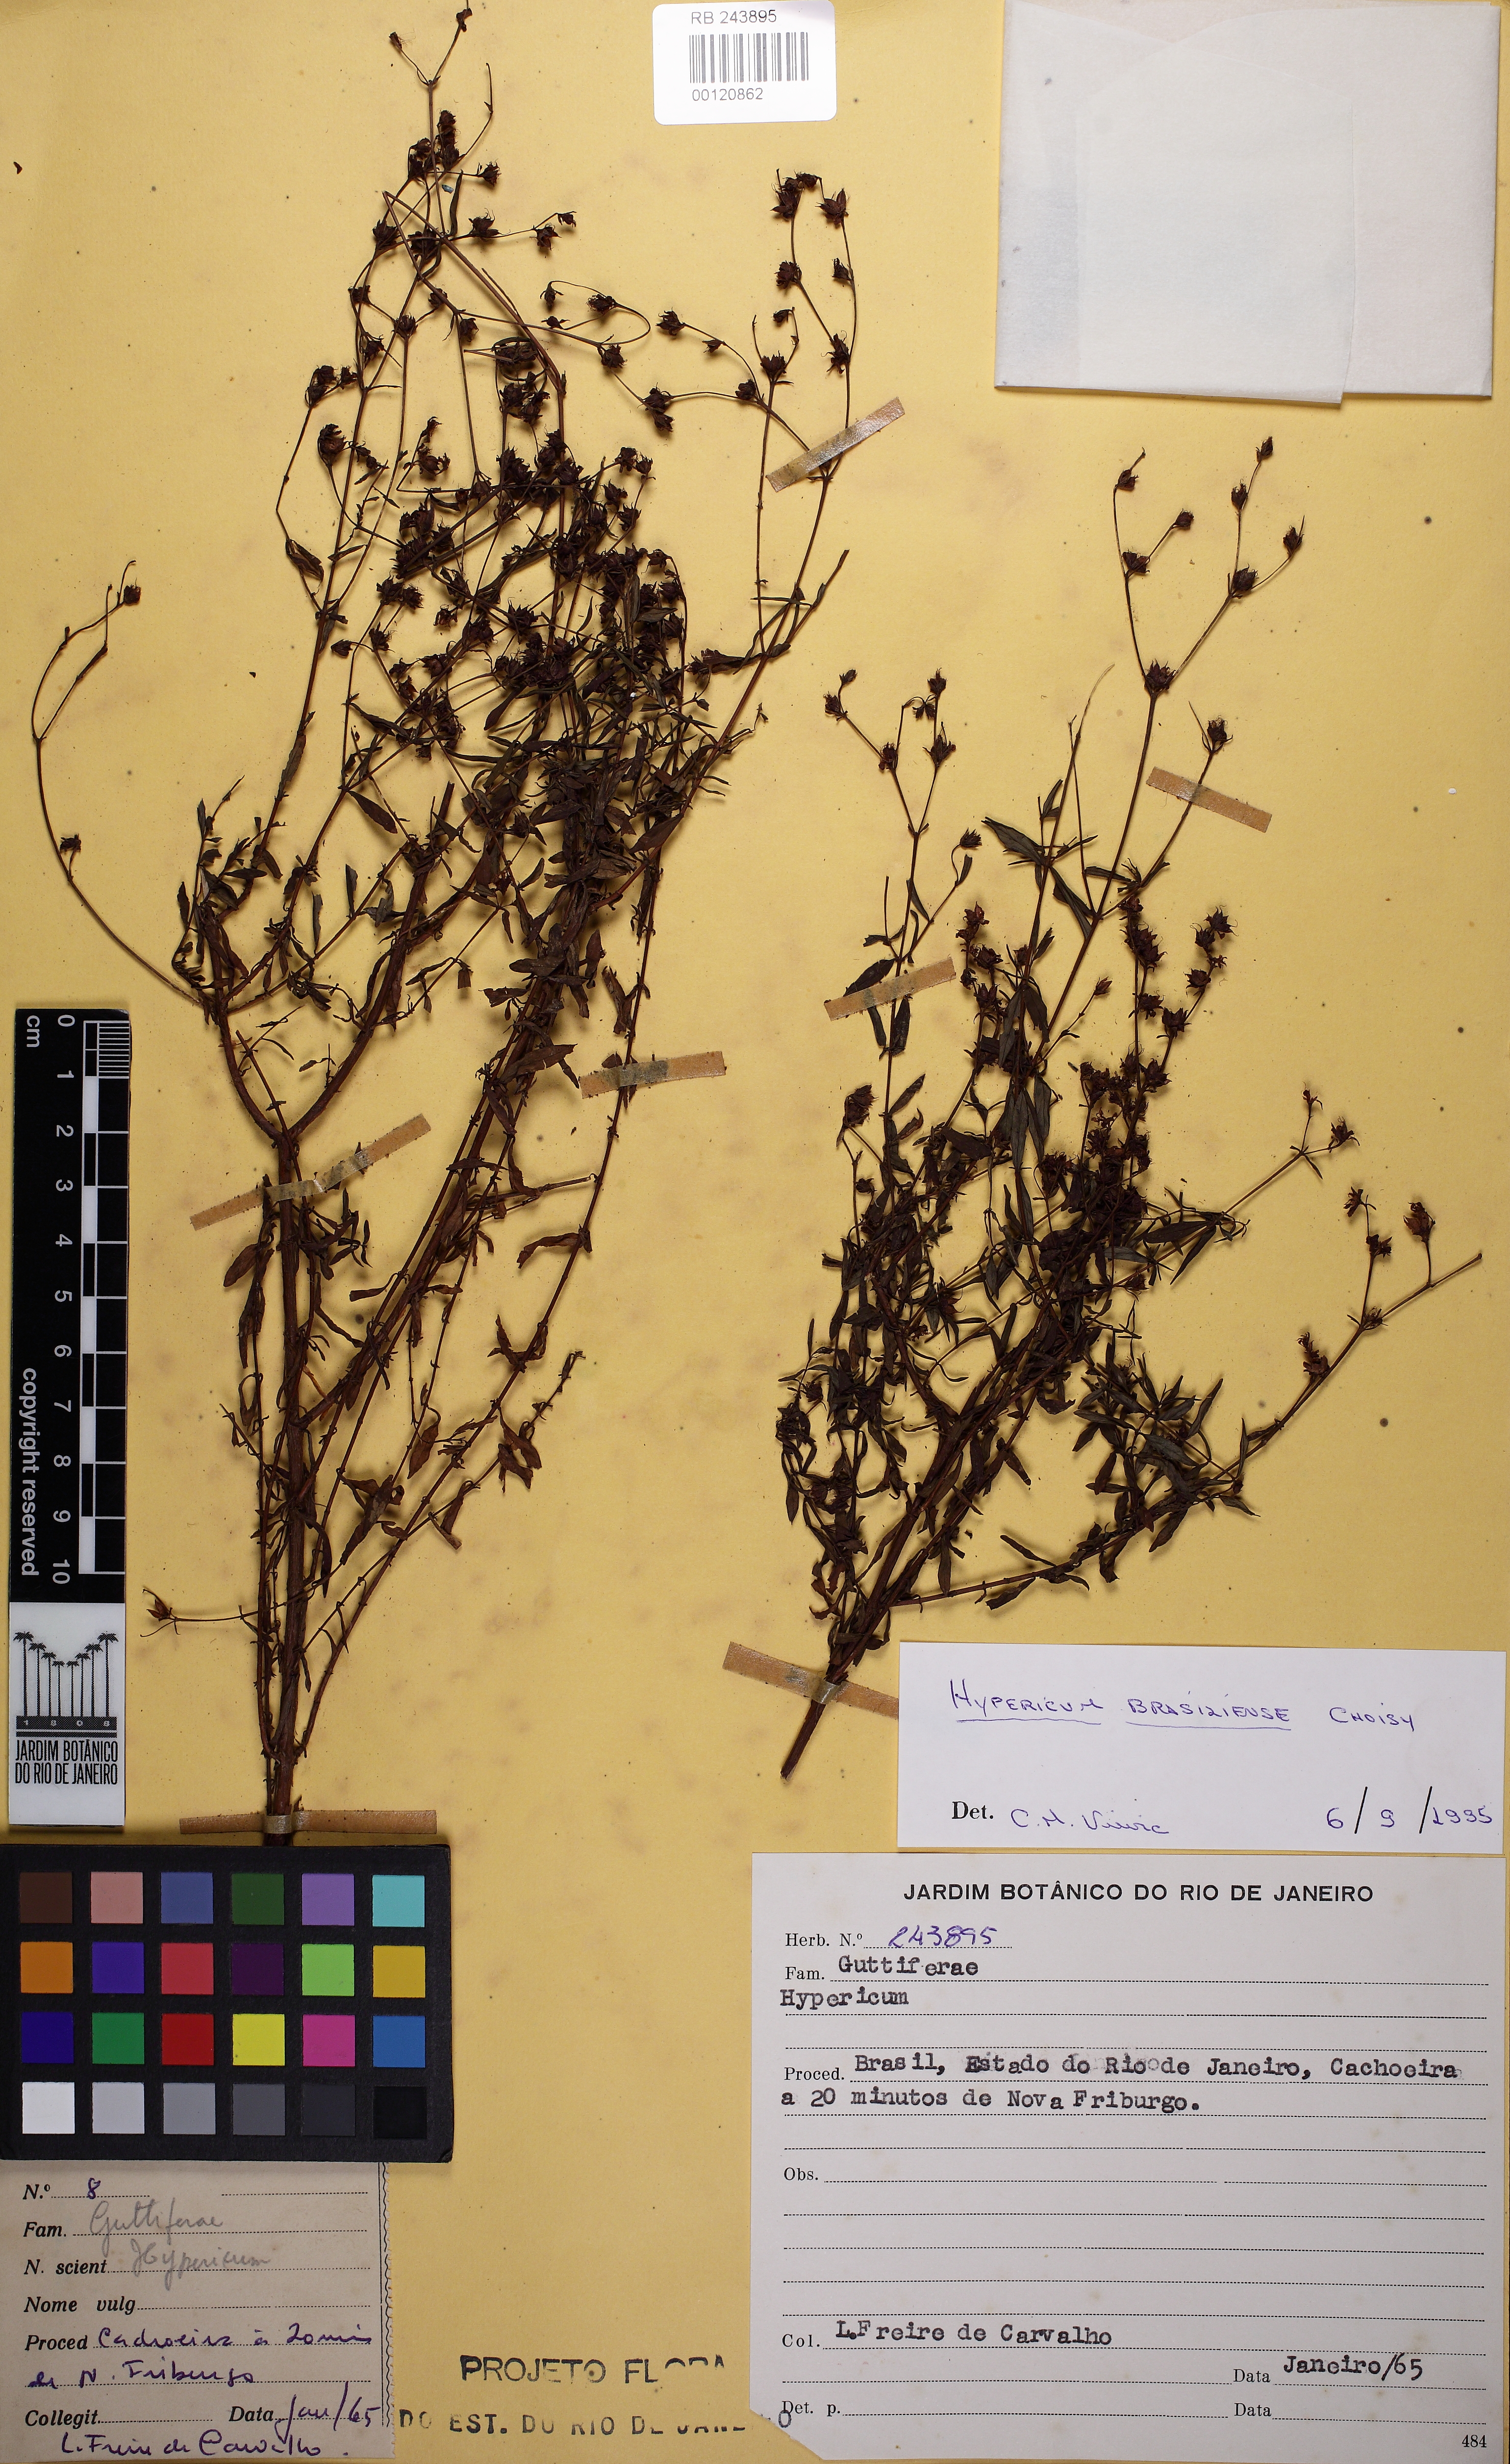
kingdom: Plantae
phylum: Tracheophyta
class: Magnoliopsida
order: Malpighiales
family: Hypericaceae
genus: Hypericum
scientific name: Hypericum brasiliense
